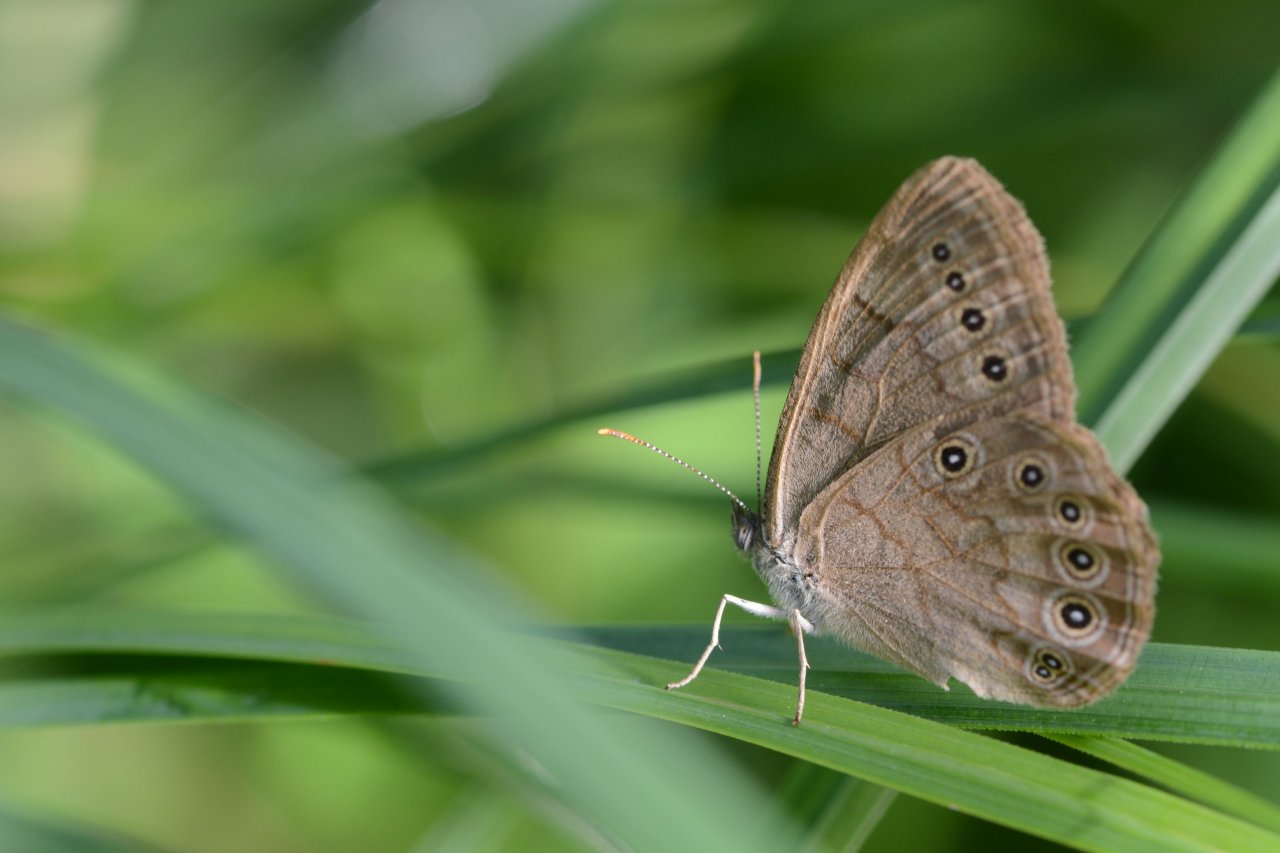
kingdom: Animalia
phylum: Arthropoda
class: Insecta
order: Lepidoptera
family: Nymphalidae
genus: Lethe
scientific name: Lethe eurydice
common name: Eyed Brown
